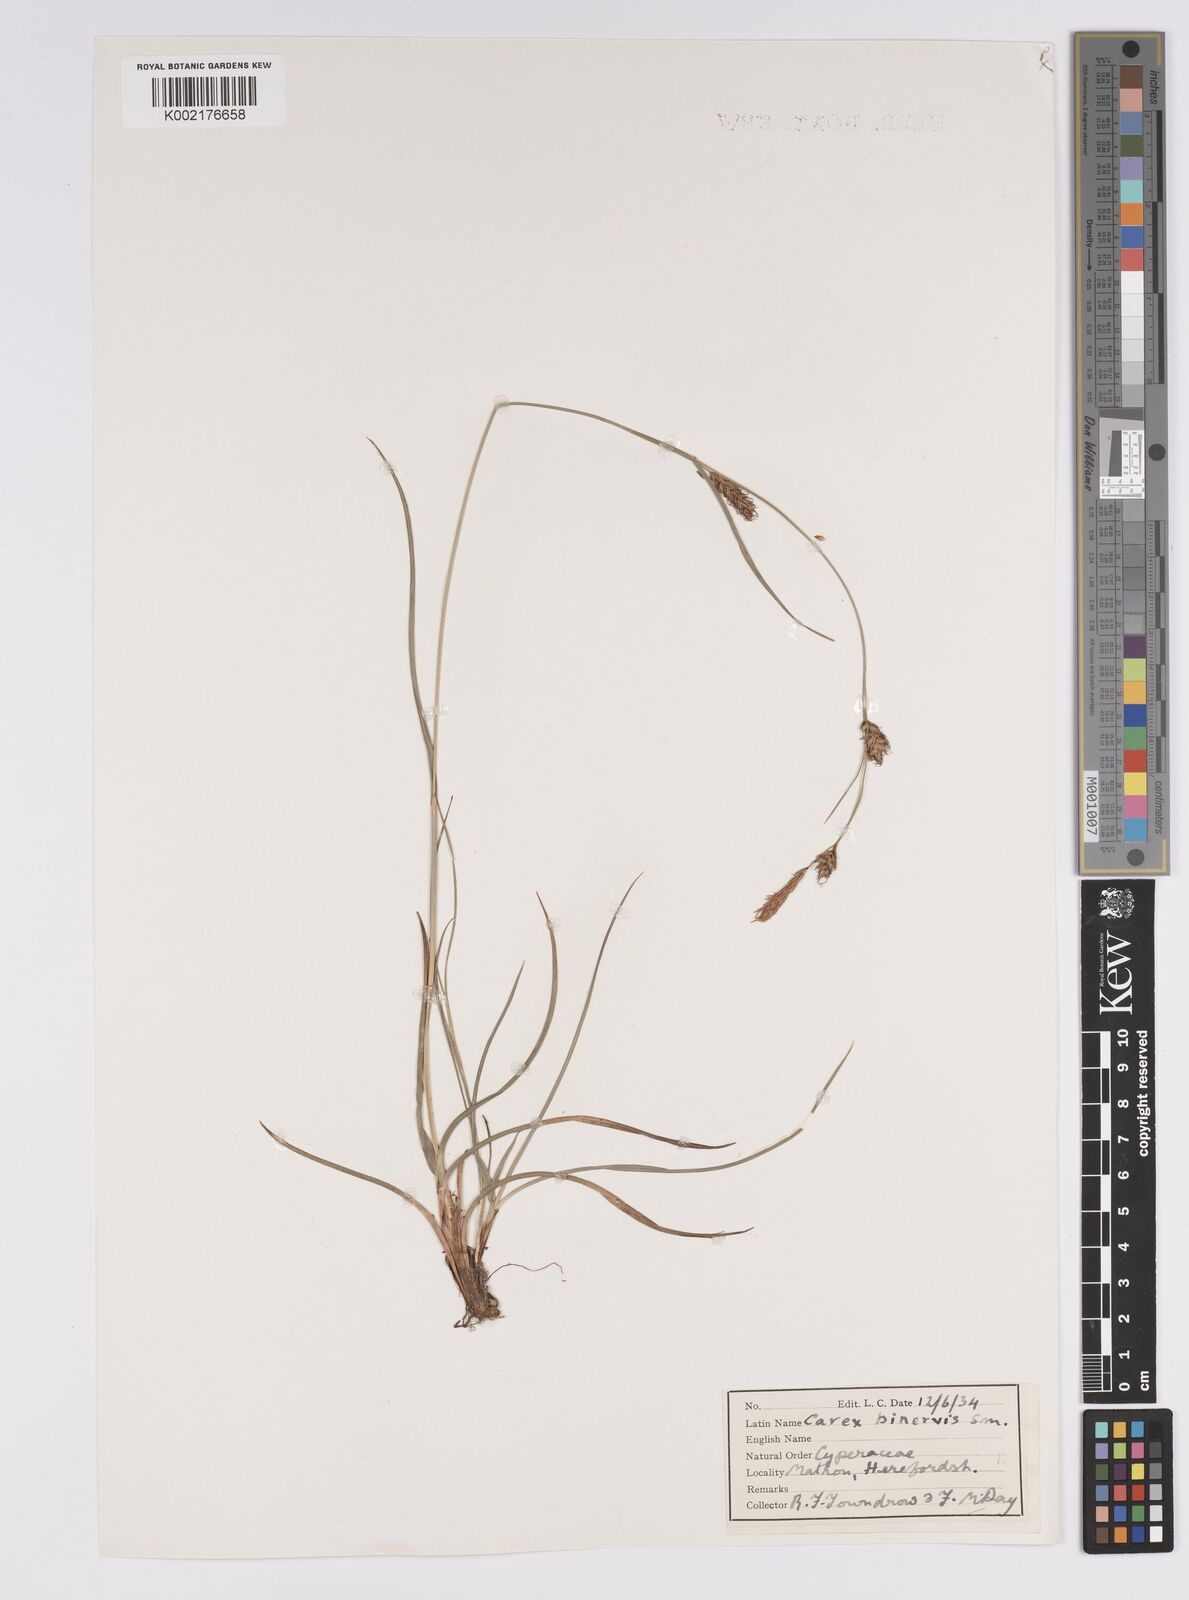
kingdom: Plantae
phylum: Tracheophyta
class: Liliopsida
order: Poales
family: Cyperaceae
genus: Carex
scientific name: Carex binervis
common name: Green-ribbed sedge
